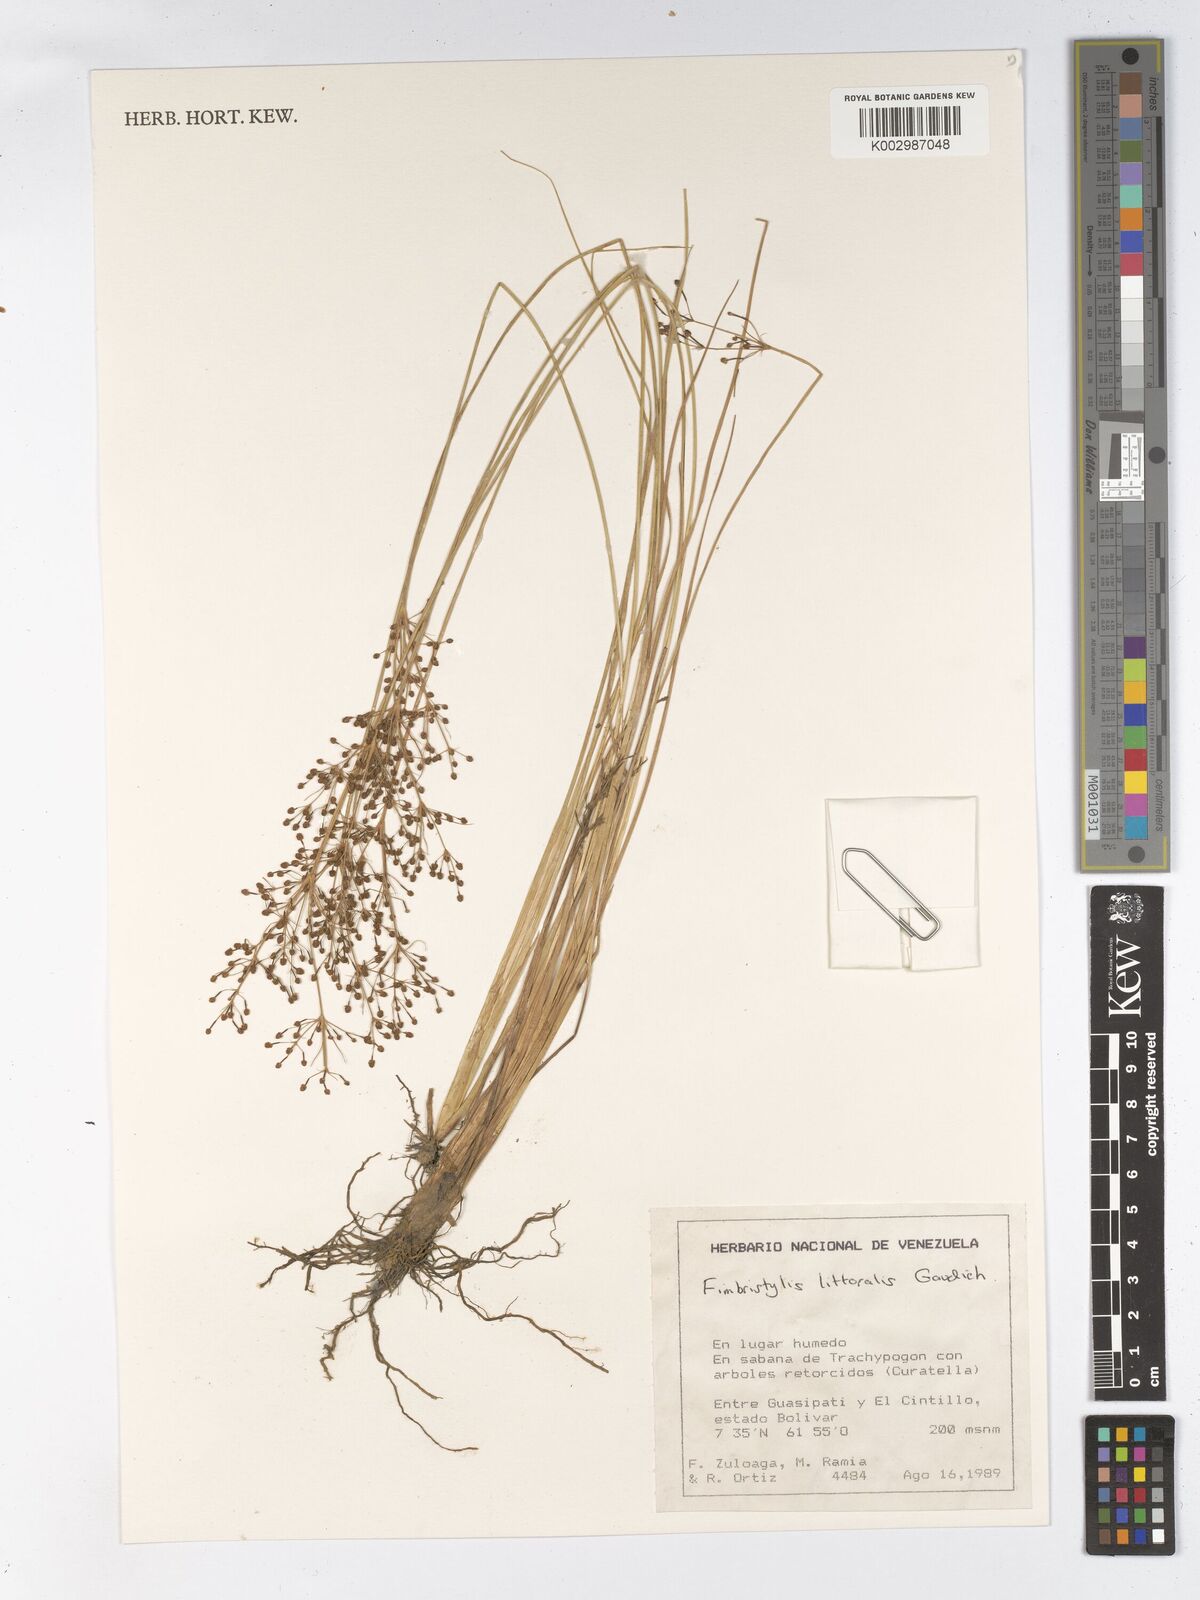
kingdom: Plantae
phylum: Tracheophyta
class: Liliopsida
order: Poales
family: Cyperaceae
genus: Fimbristylis
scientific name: Fimbristylis littoralis
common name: Fimbry
